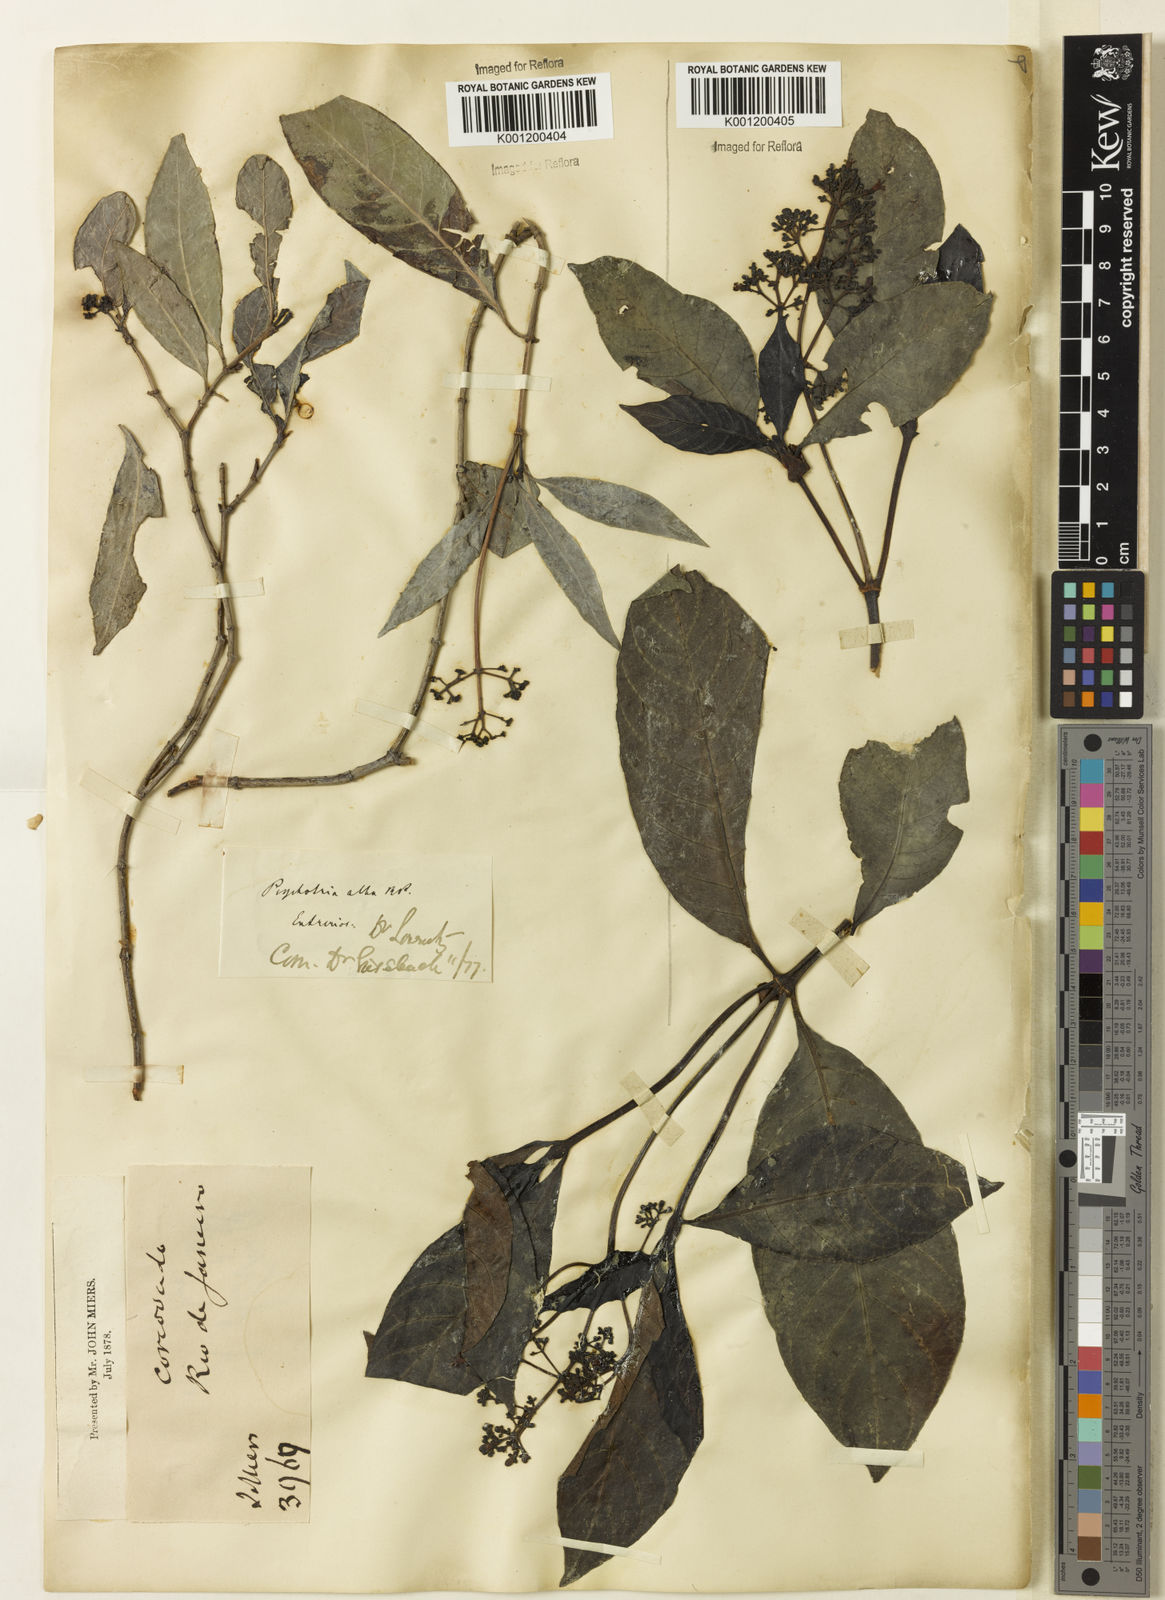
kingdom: Plantae
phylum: Tracheophyta
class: Magnoliopsida
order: Gentianales
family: Rubiaceae
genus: Psychotria
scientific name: Psychotria carthagenensis
